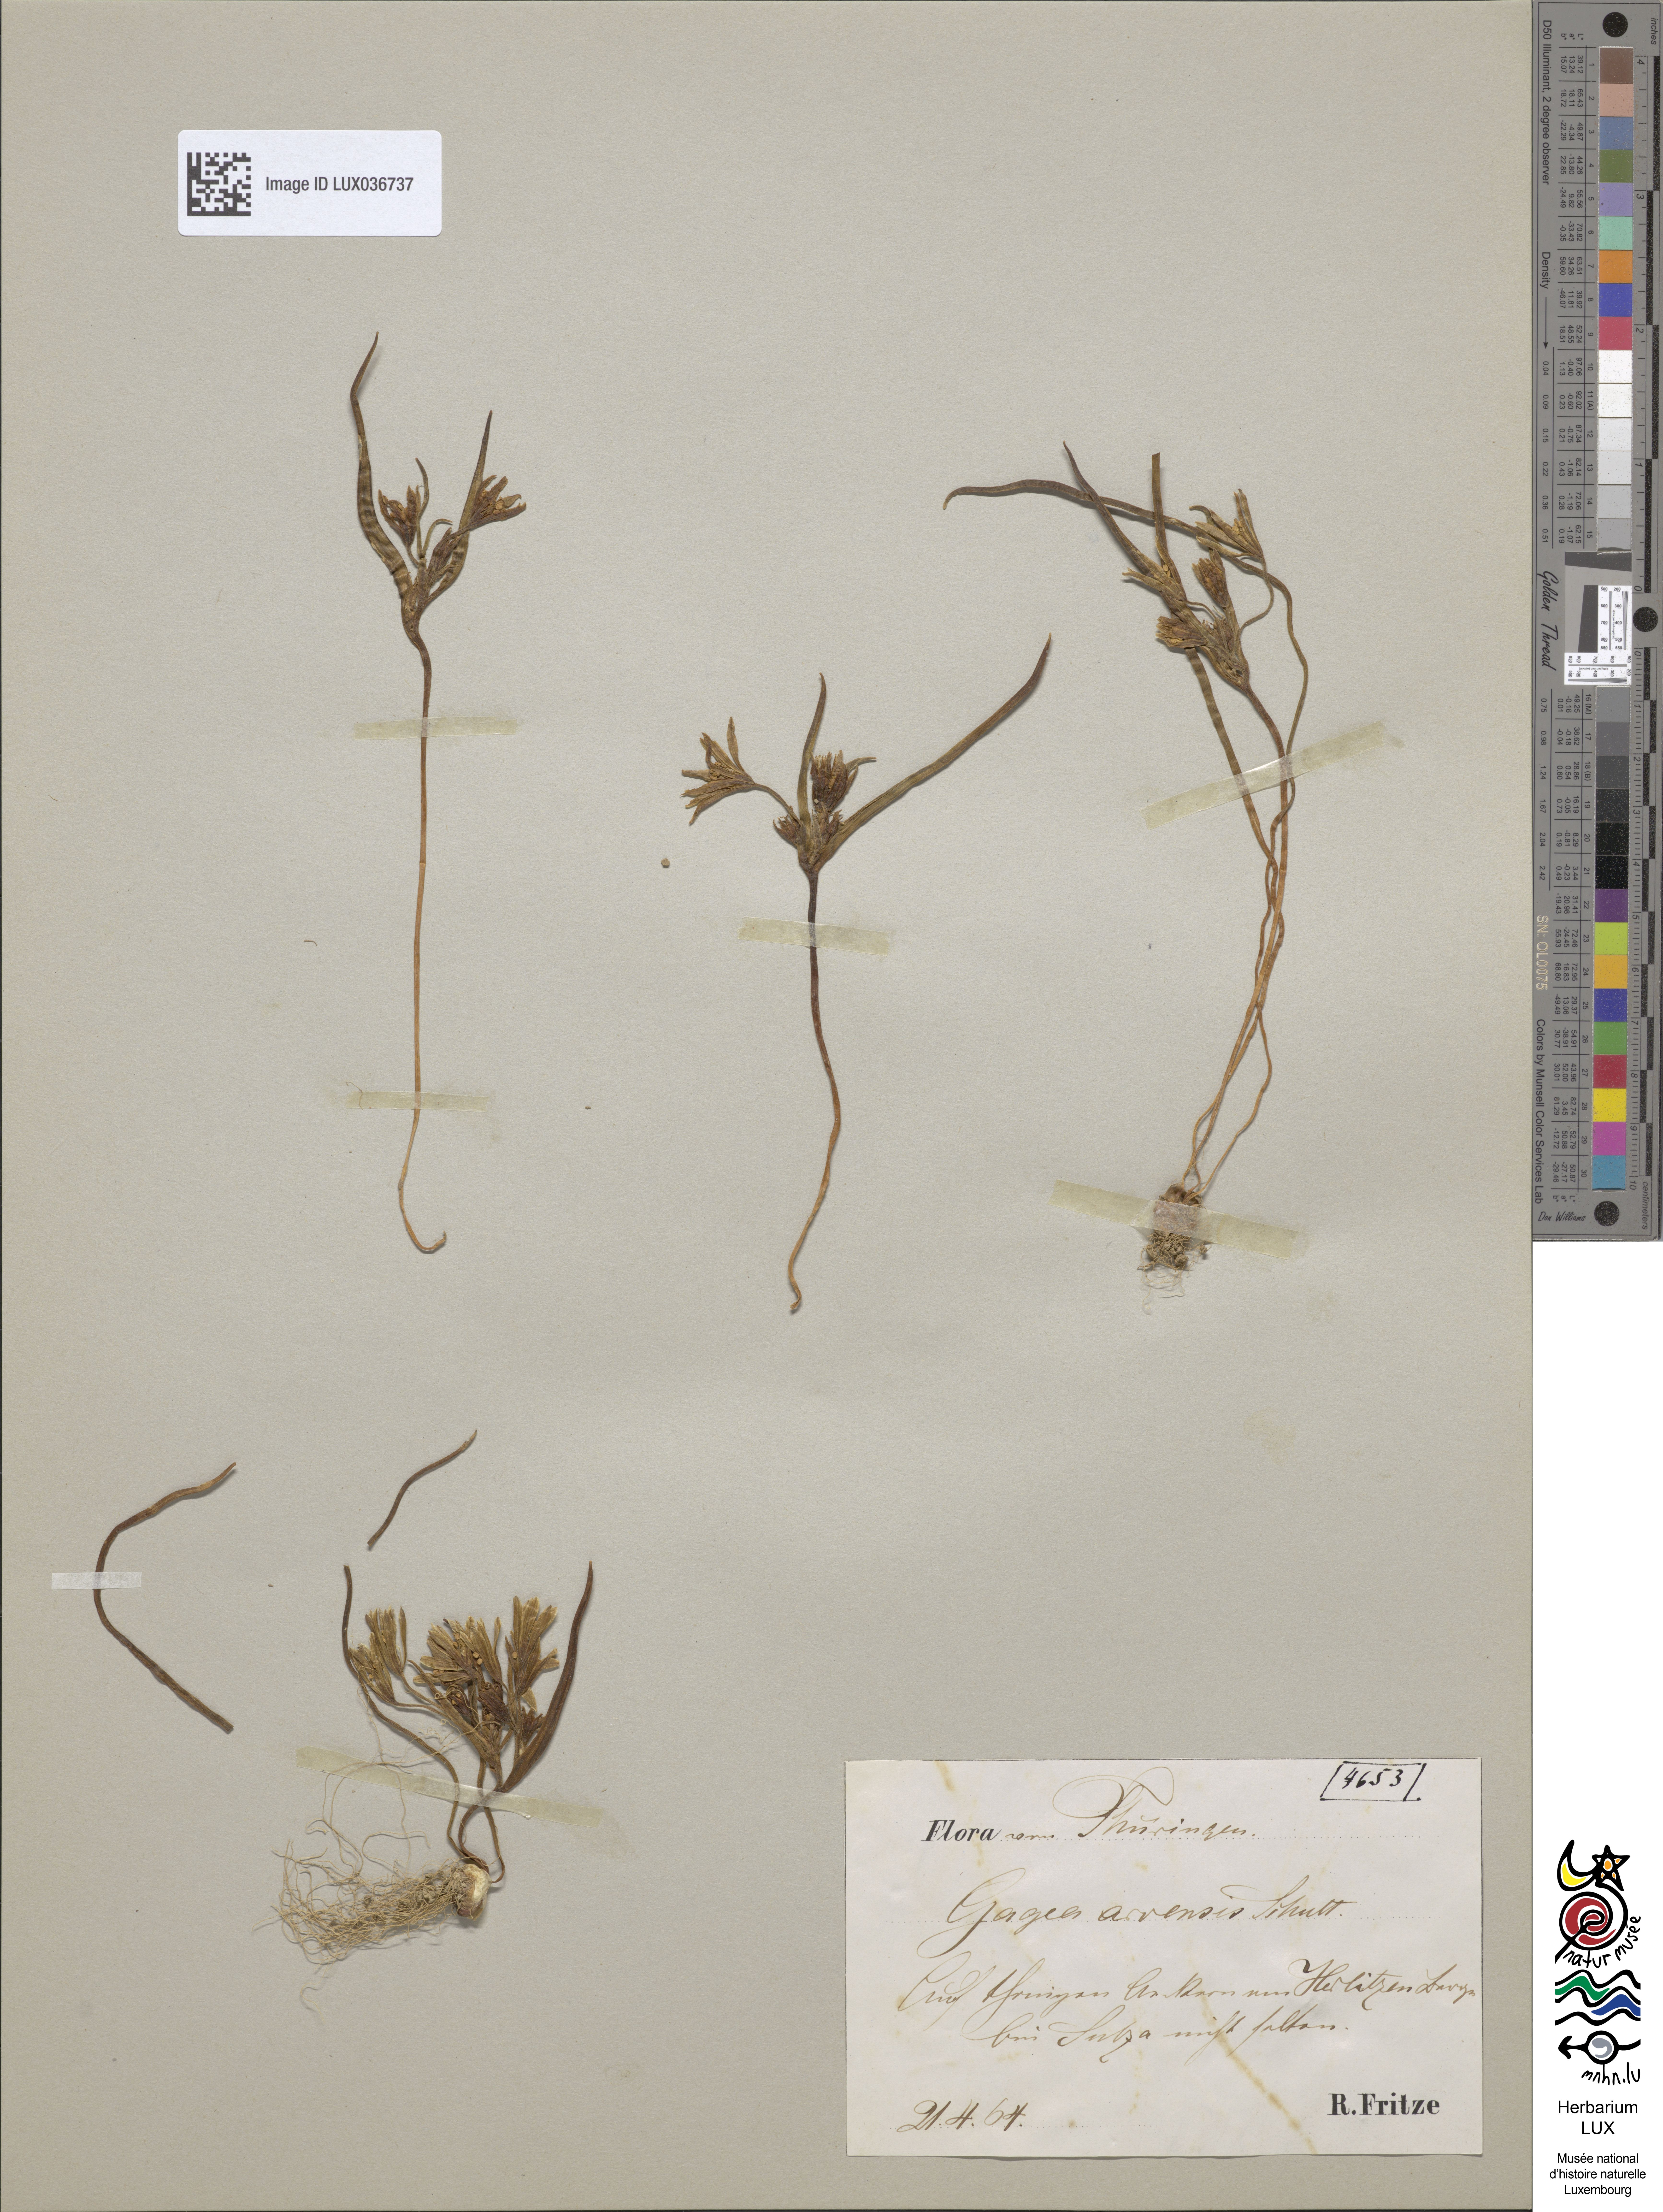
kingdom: Plantae
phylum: Tracheophyta
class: Liliopsida
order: Liliales
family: Liliaceae
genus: Gagea
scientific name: Gagea minima
